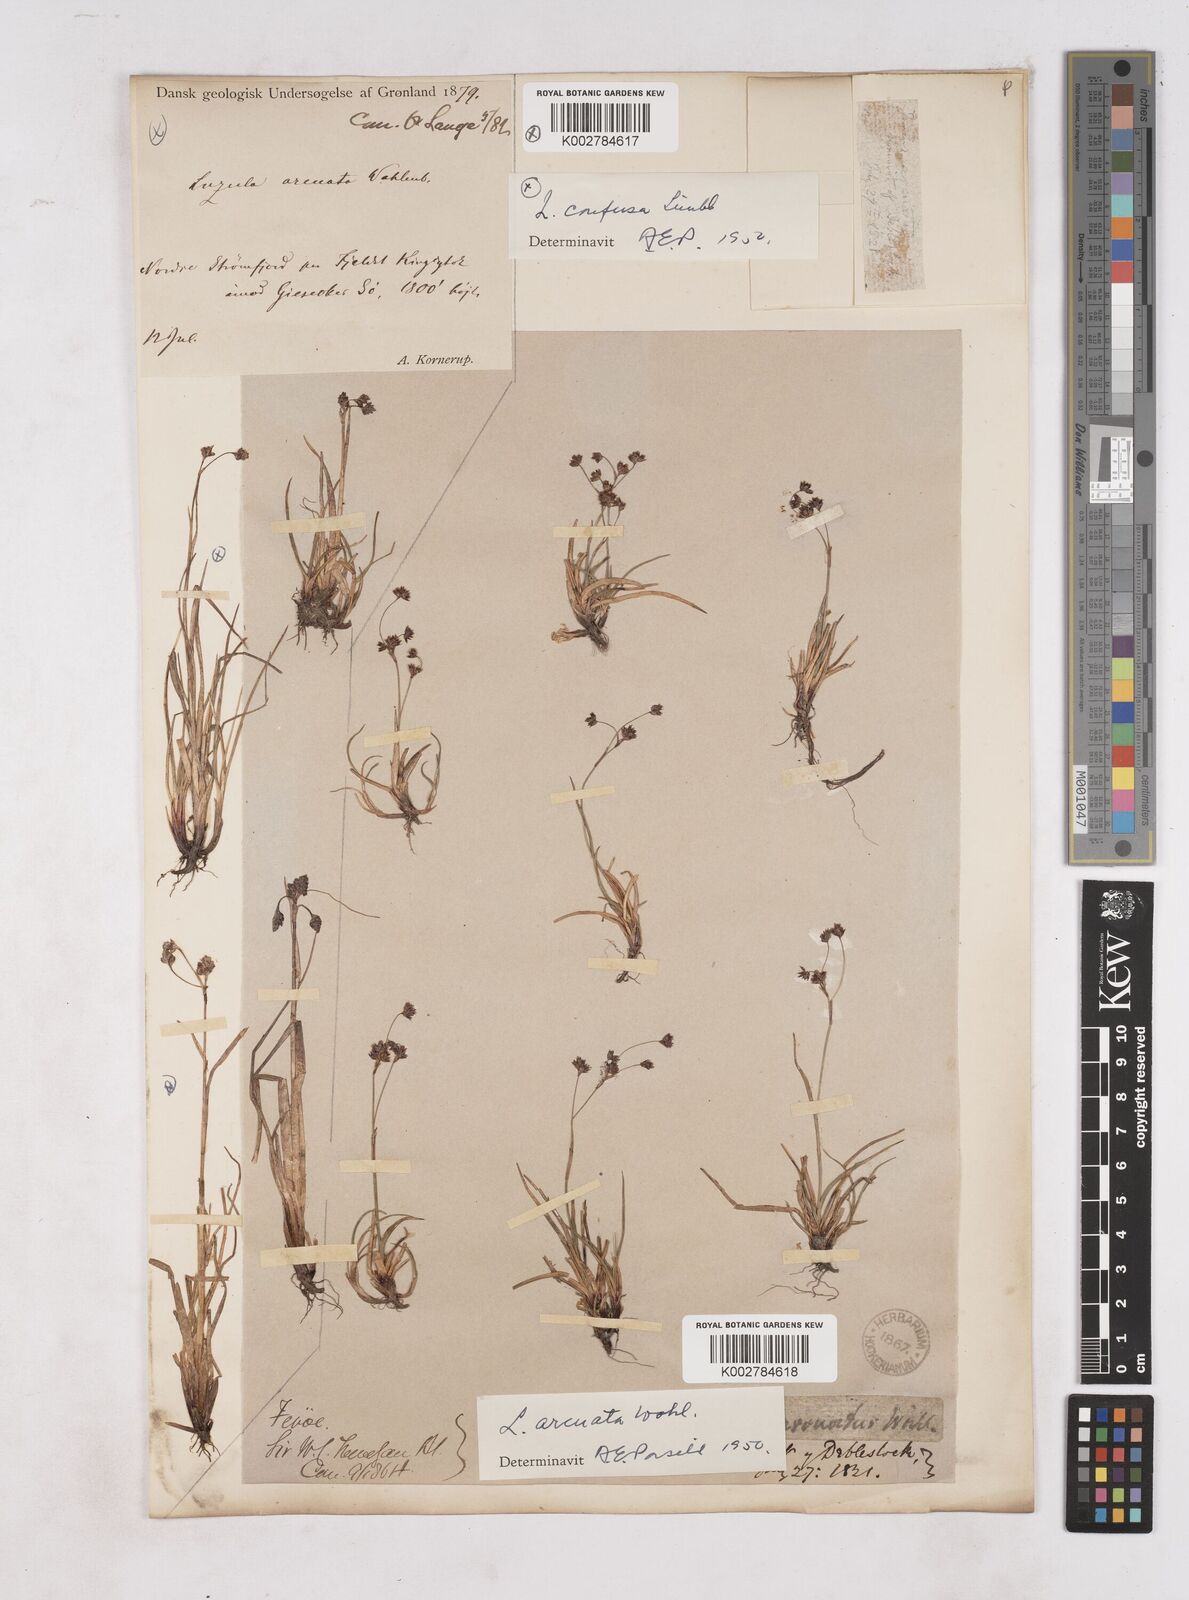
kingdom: Plantae
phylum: Tracheophyta
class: Liliopsida
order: Poales
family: Juncaceae
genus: Luzula
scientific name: Luzula arcuata
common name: Curved wood-rush
